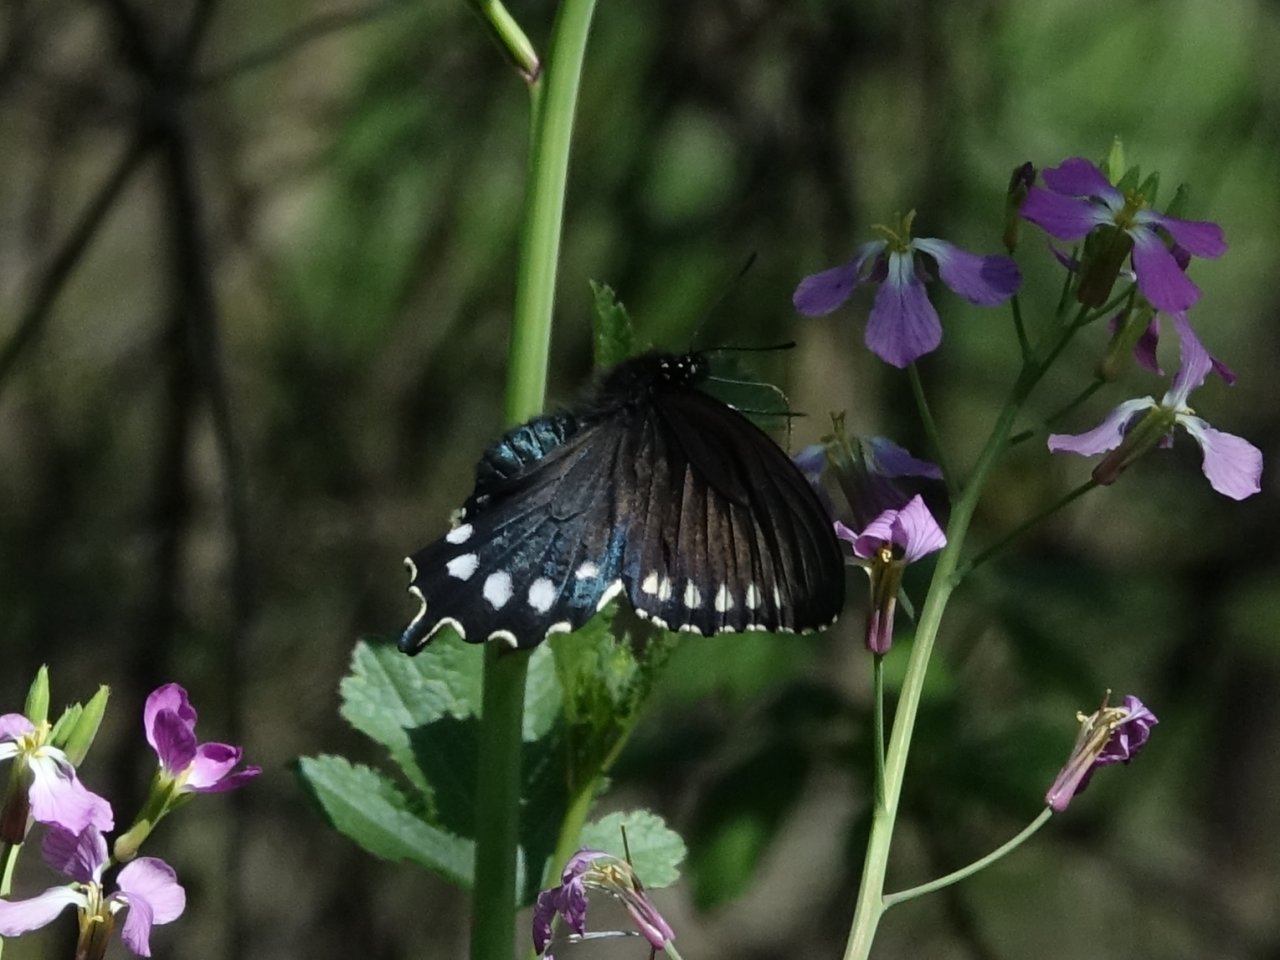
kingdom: Animalia
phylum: Arthropoda
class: Insecta
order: Lepidoptera
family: Papilionidae
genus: Battus
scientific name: Battus philenor
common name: Pipevine Swallowtail
